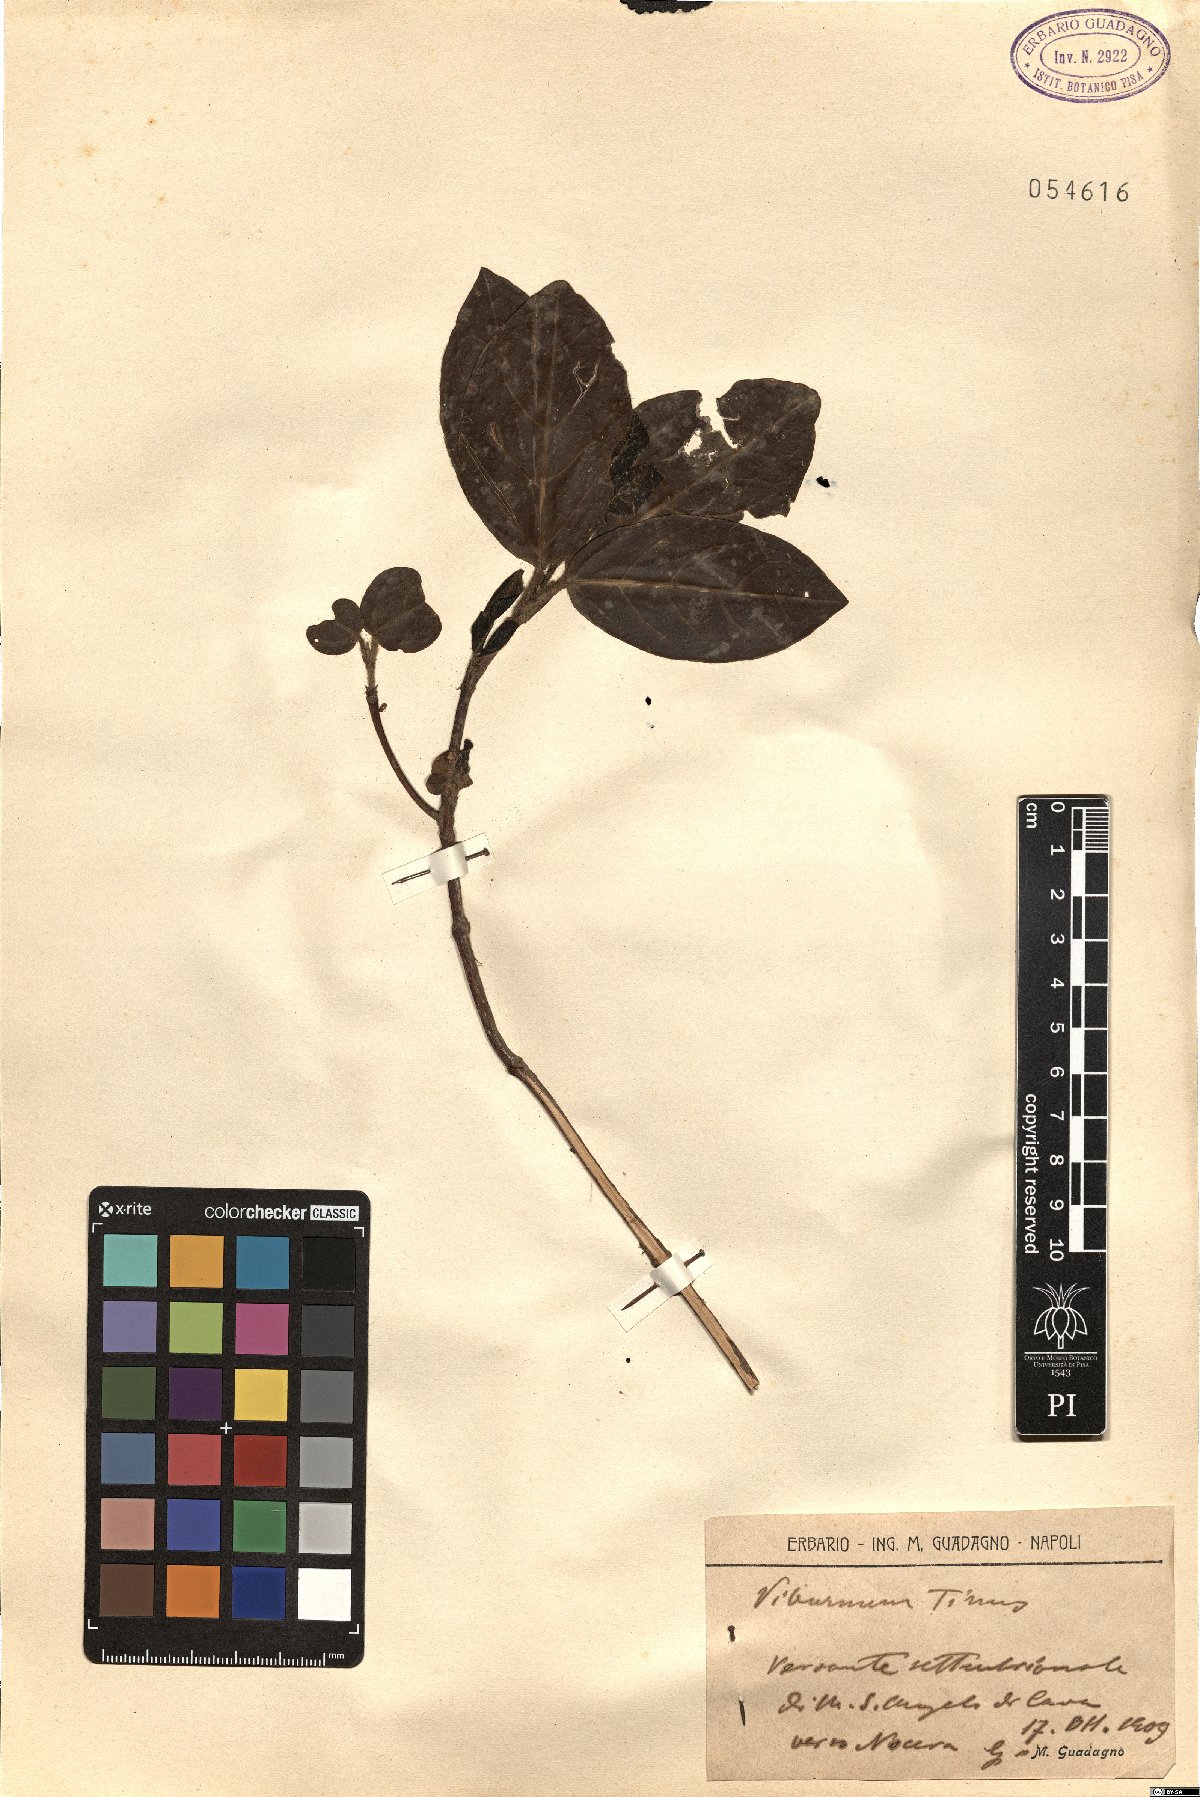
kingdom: Plantae
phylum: Tracheophyta
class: Magnoliopsida
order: Dipsacales
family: Viburnaceae
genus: Viburnum
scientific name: Viburnum tinus
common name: Laurustinus
